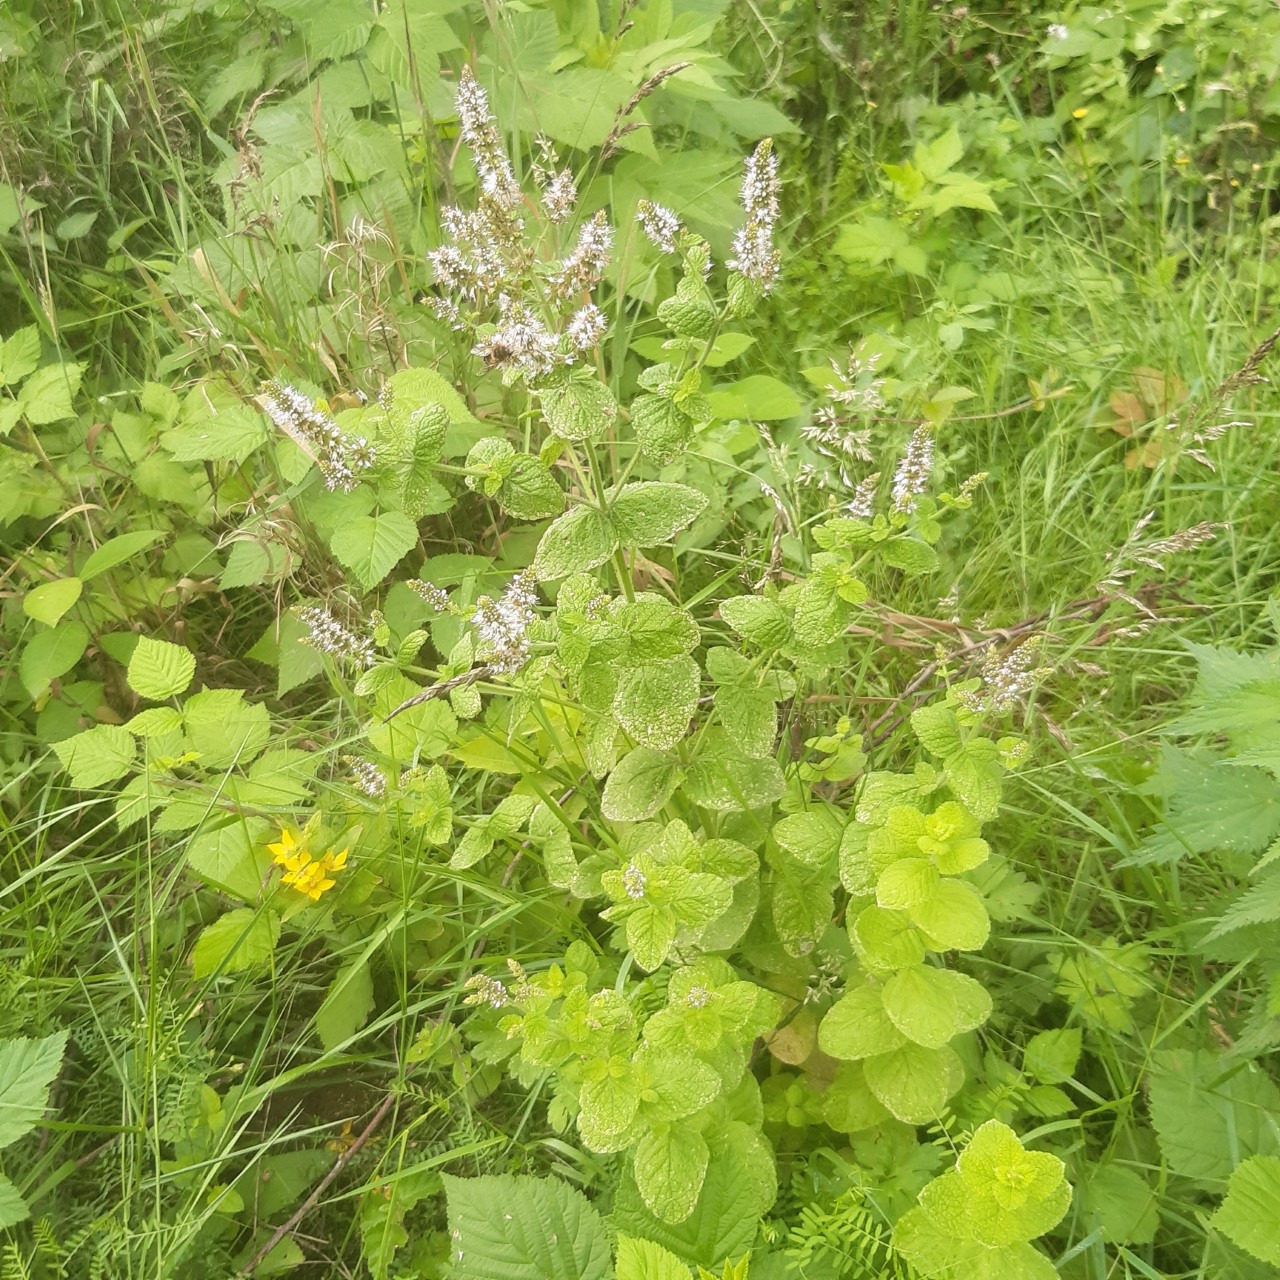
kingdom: Plantae
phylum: Tracheophyta
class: Magnoliopsida
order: Lamiales
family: Lamiaceae
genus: Mentha
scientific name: Mentha villosa
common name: Æble-mynte
